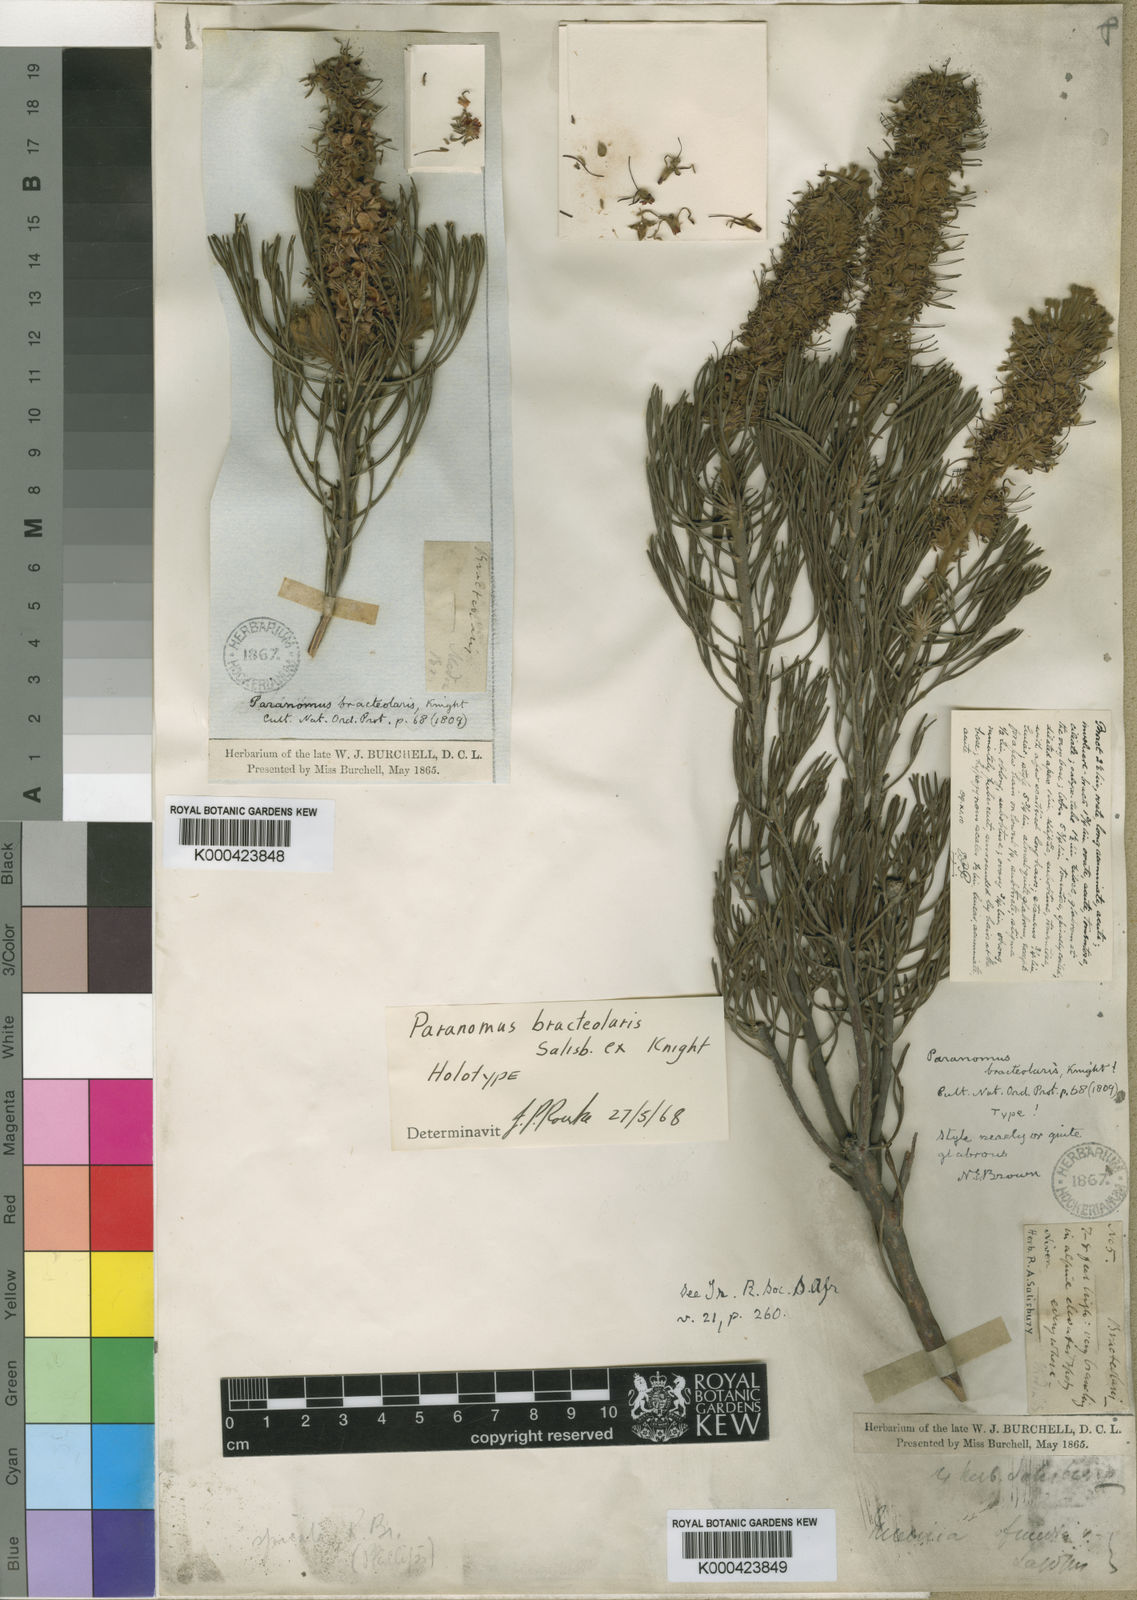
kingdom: Plantae
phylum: Tracheophyta
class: Magnoliopsida
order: Proteales
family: Proteaceae
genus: Paranomus
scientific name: Paranomus bracteolaris
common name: Bokkeveld tree sceptre
